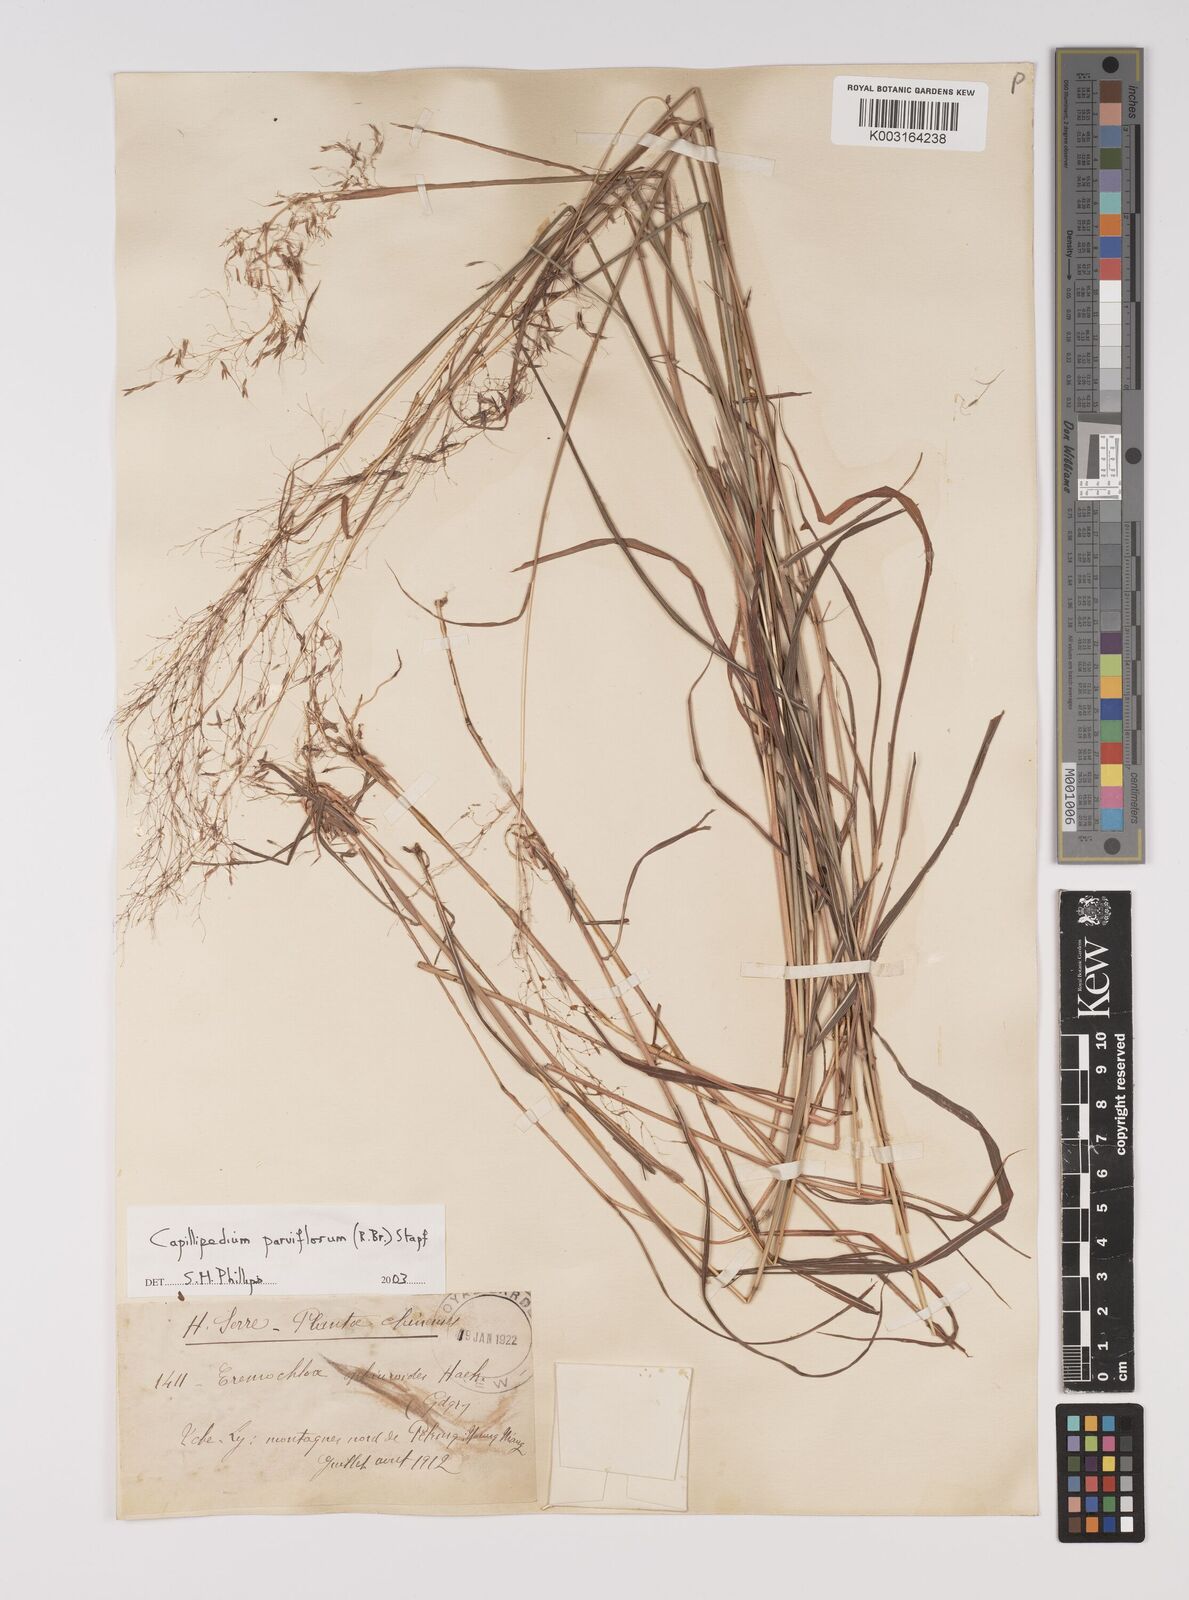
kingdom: Plantae
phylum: Tracheophyta
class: Liliopsida
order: Poales
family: Poaceae
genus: Capillipedium
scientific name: Capillipedium parviflorum
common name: Golden-beard
